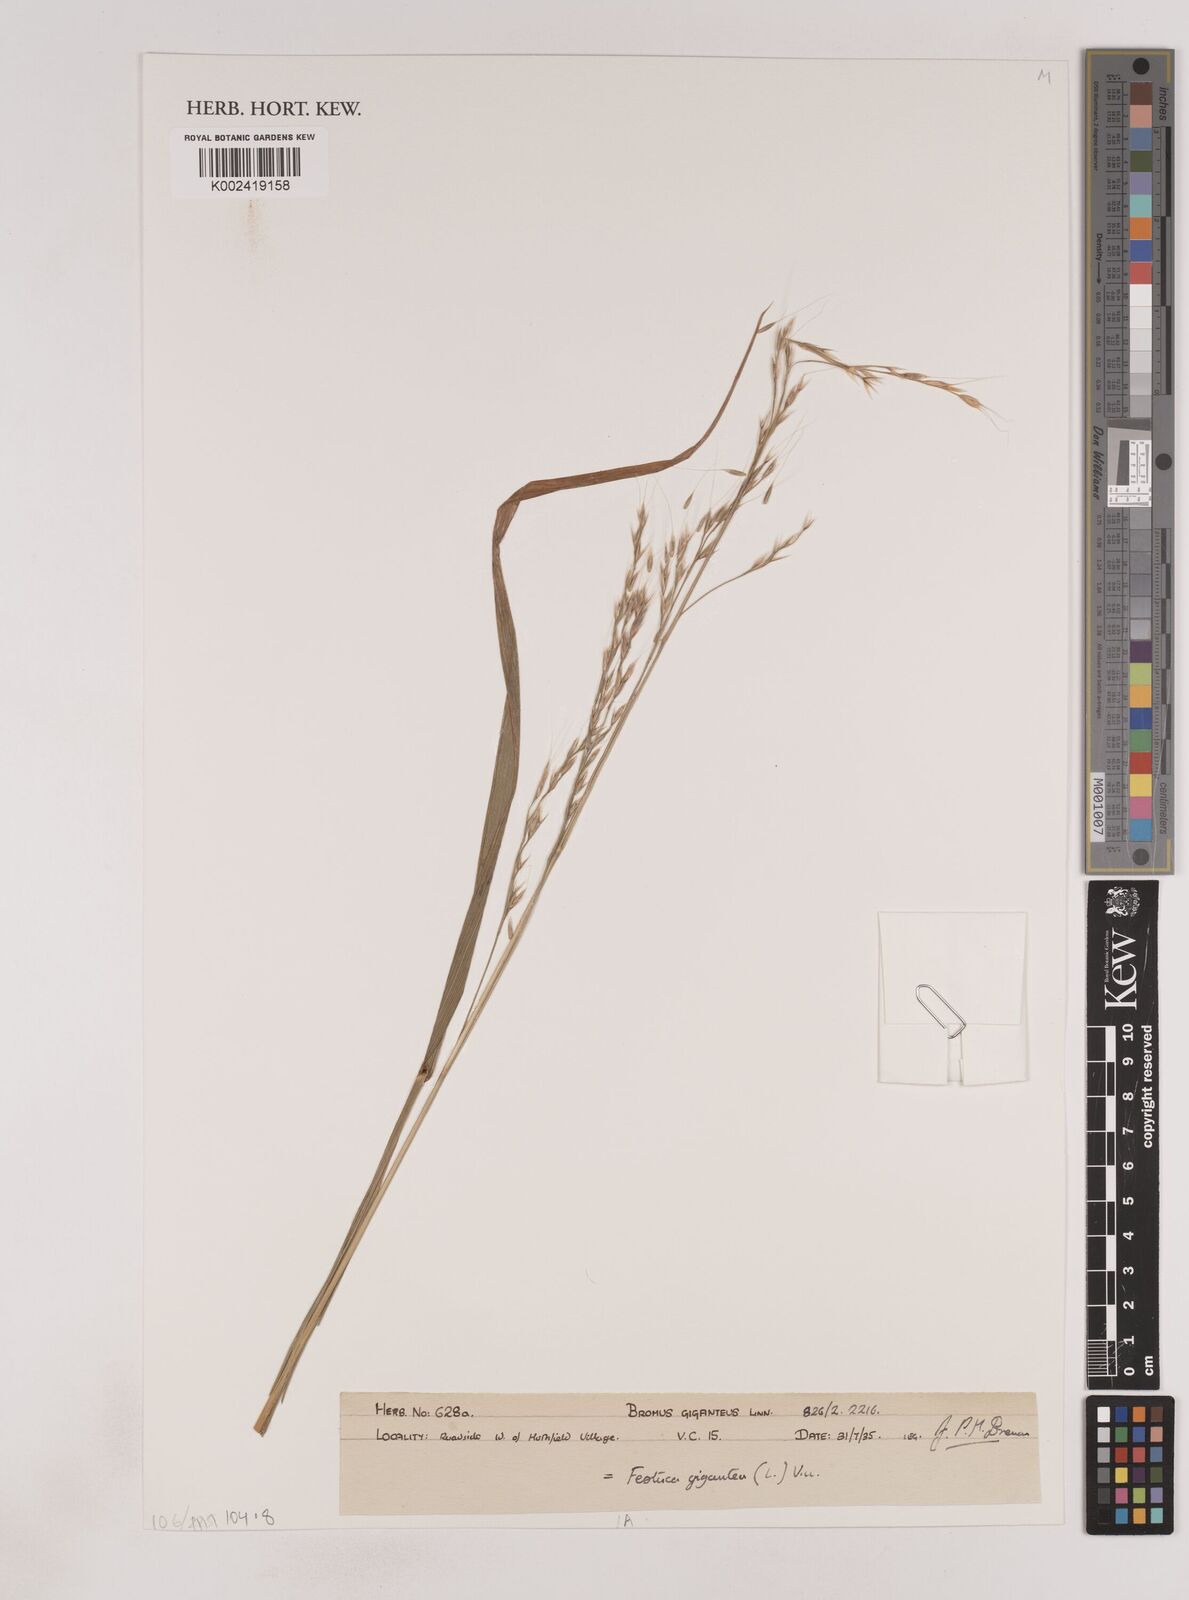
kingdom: Plantae
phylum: Tracheophyta
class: Liliopsida
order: Poales
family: Poaceae
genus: Festuca
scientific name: Festuca
